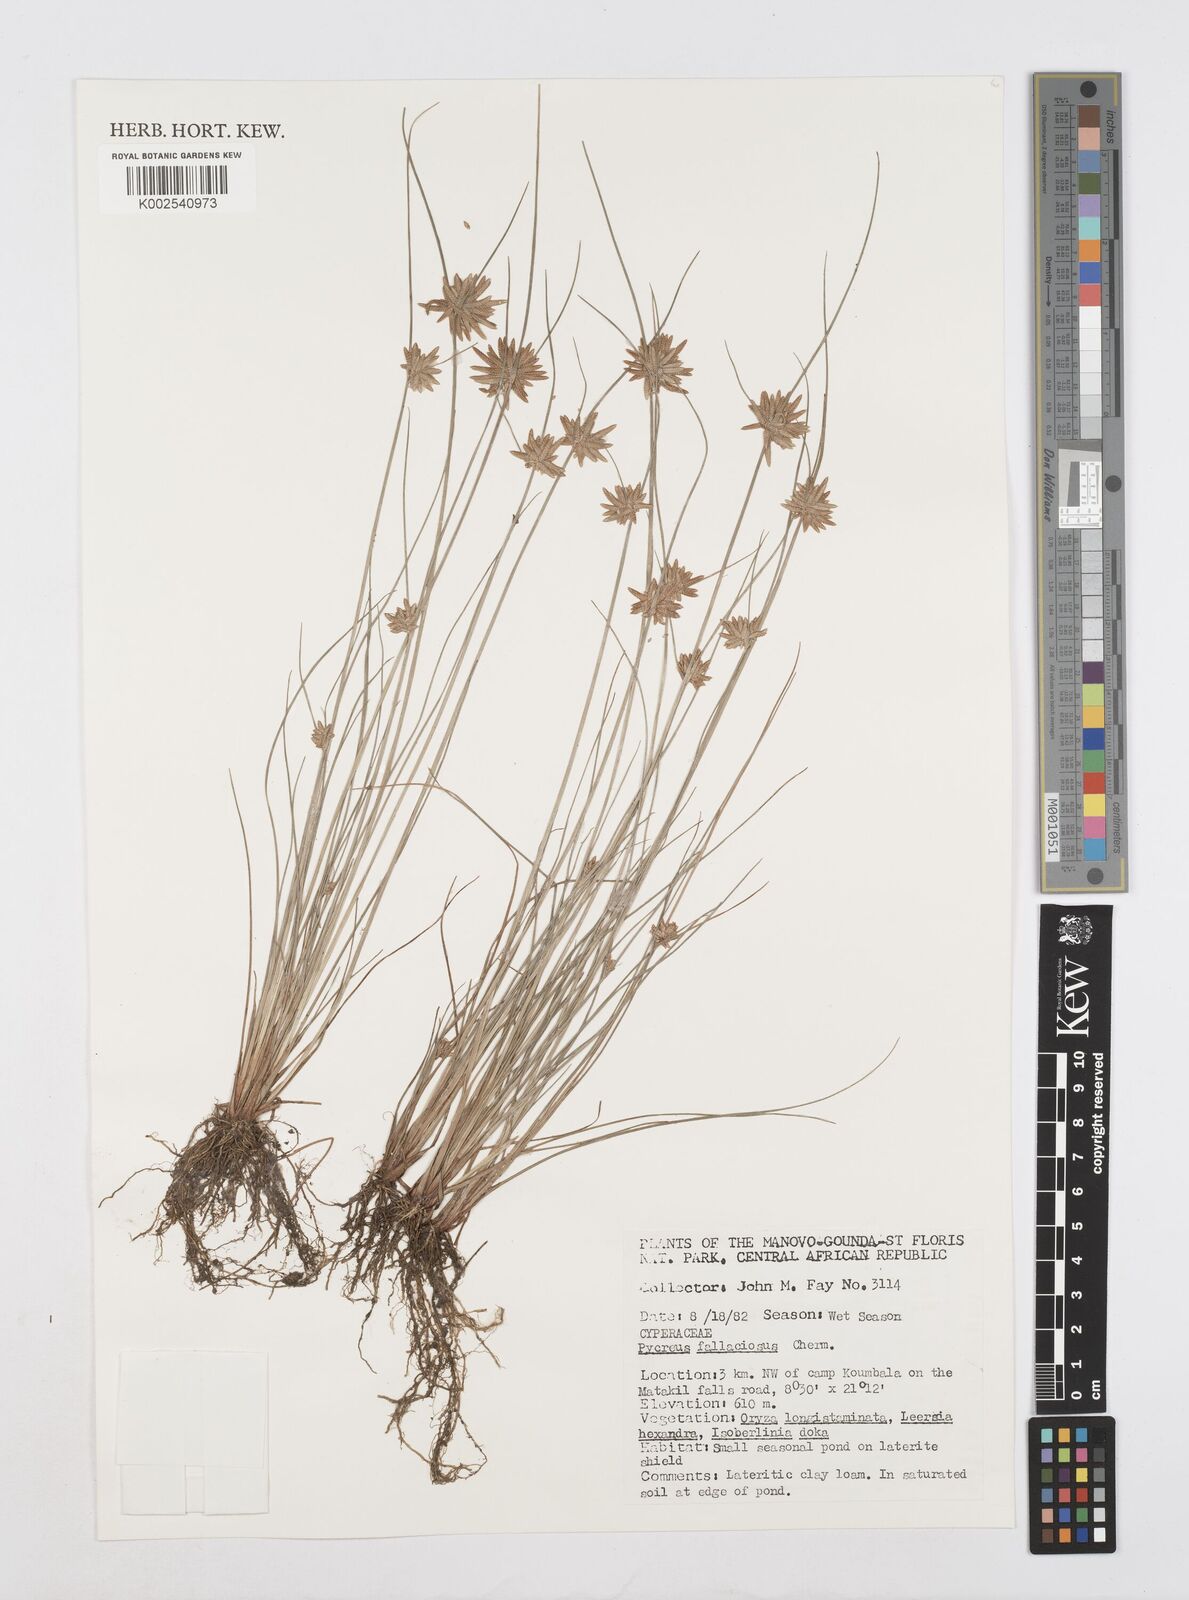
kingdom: Plantae
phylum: Tracheophyta
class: Liliopsida
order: Poales
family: Cyperaceae
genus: Cyperus
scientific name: Cyperus flavescens
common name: Yellow galingale
